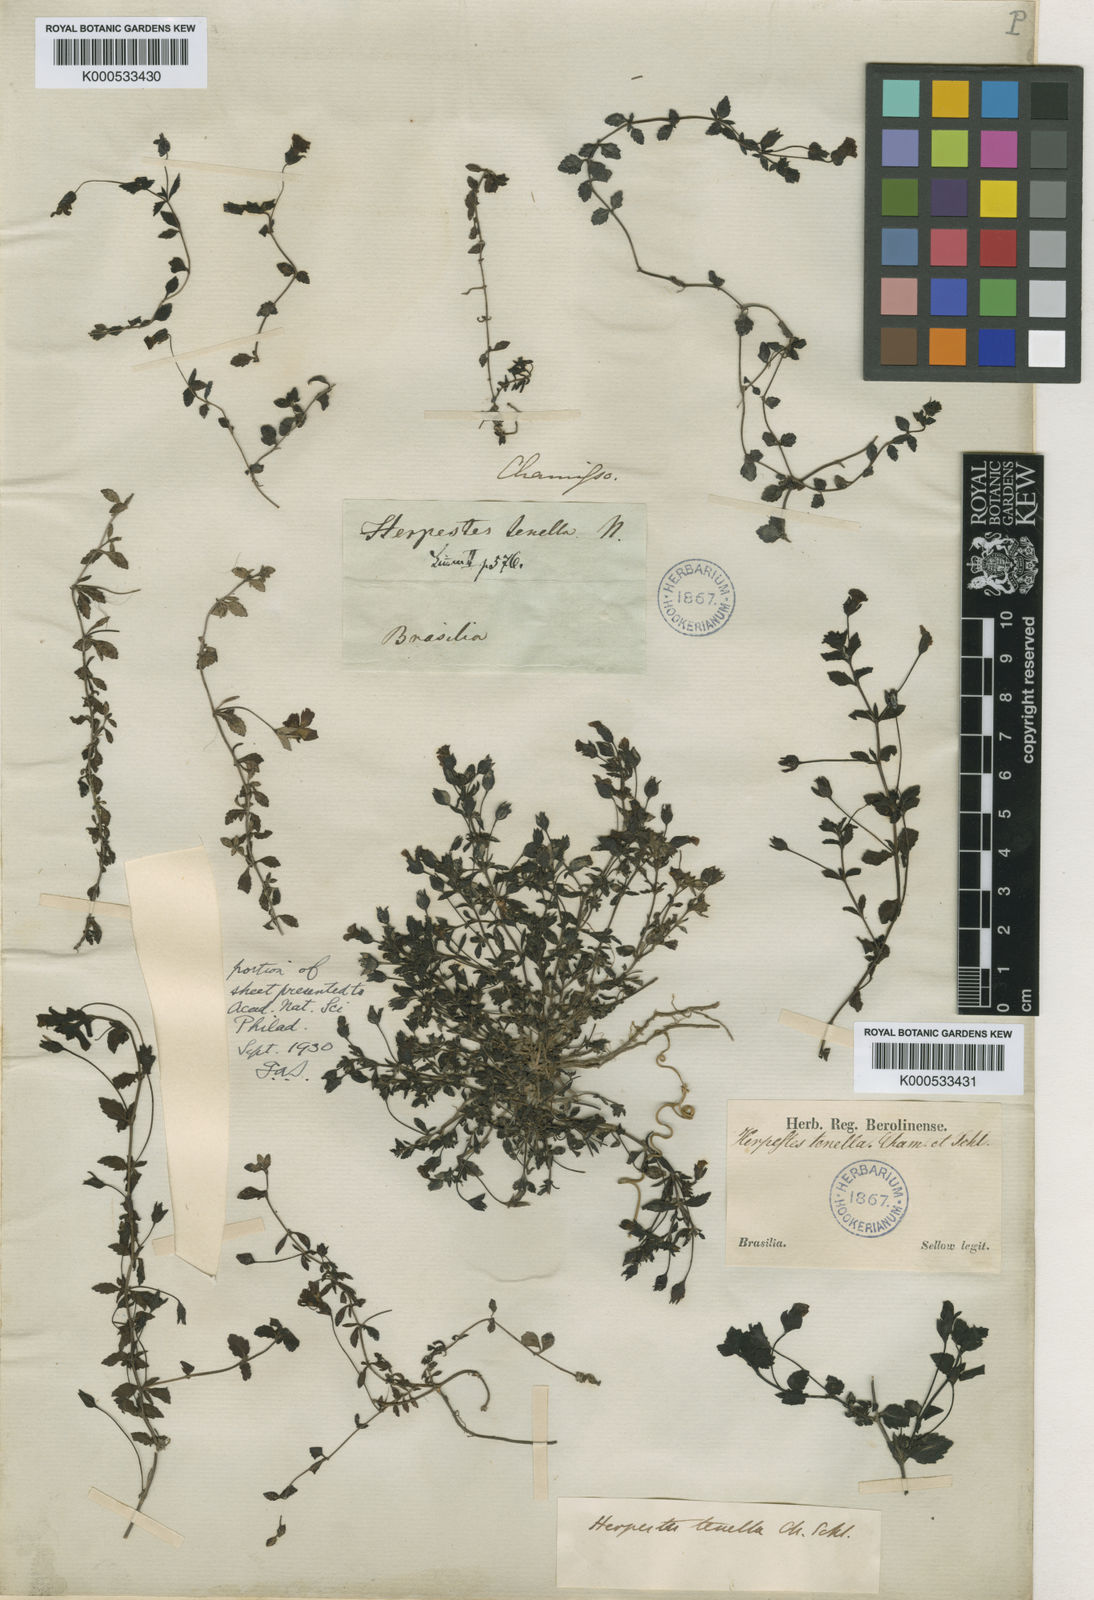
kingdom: Plantae
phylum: Tracheophyta
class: Magnoliopsida
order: Lamiales
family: Plantaginaceae
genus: Mecardonia
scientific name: Mecardonia procumbens
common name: Baby jump-up
